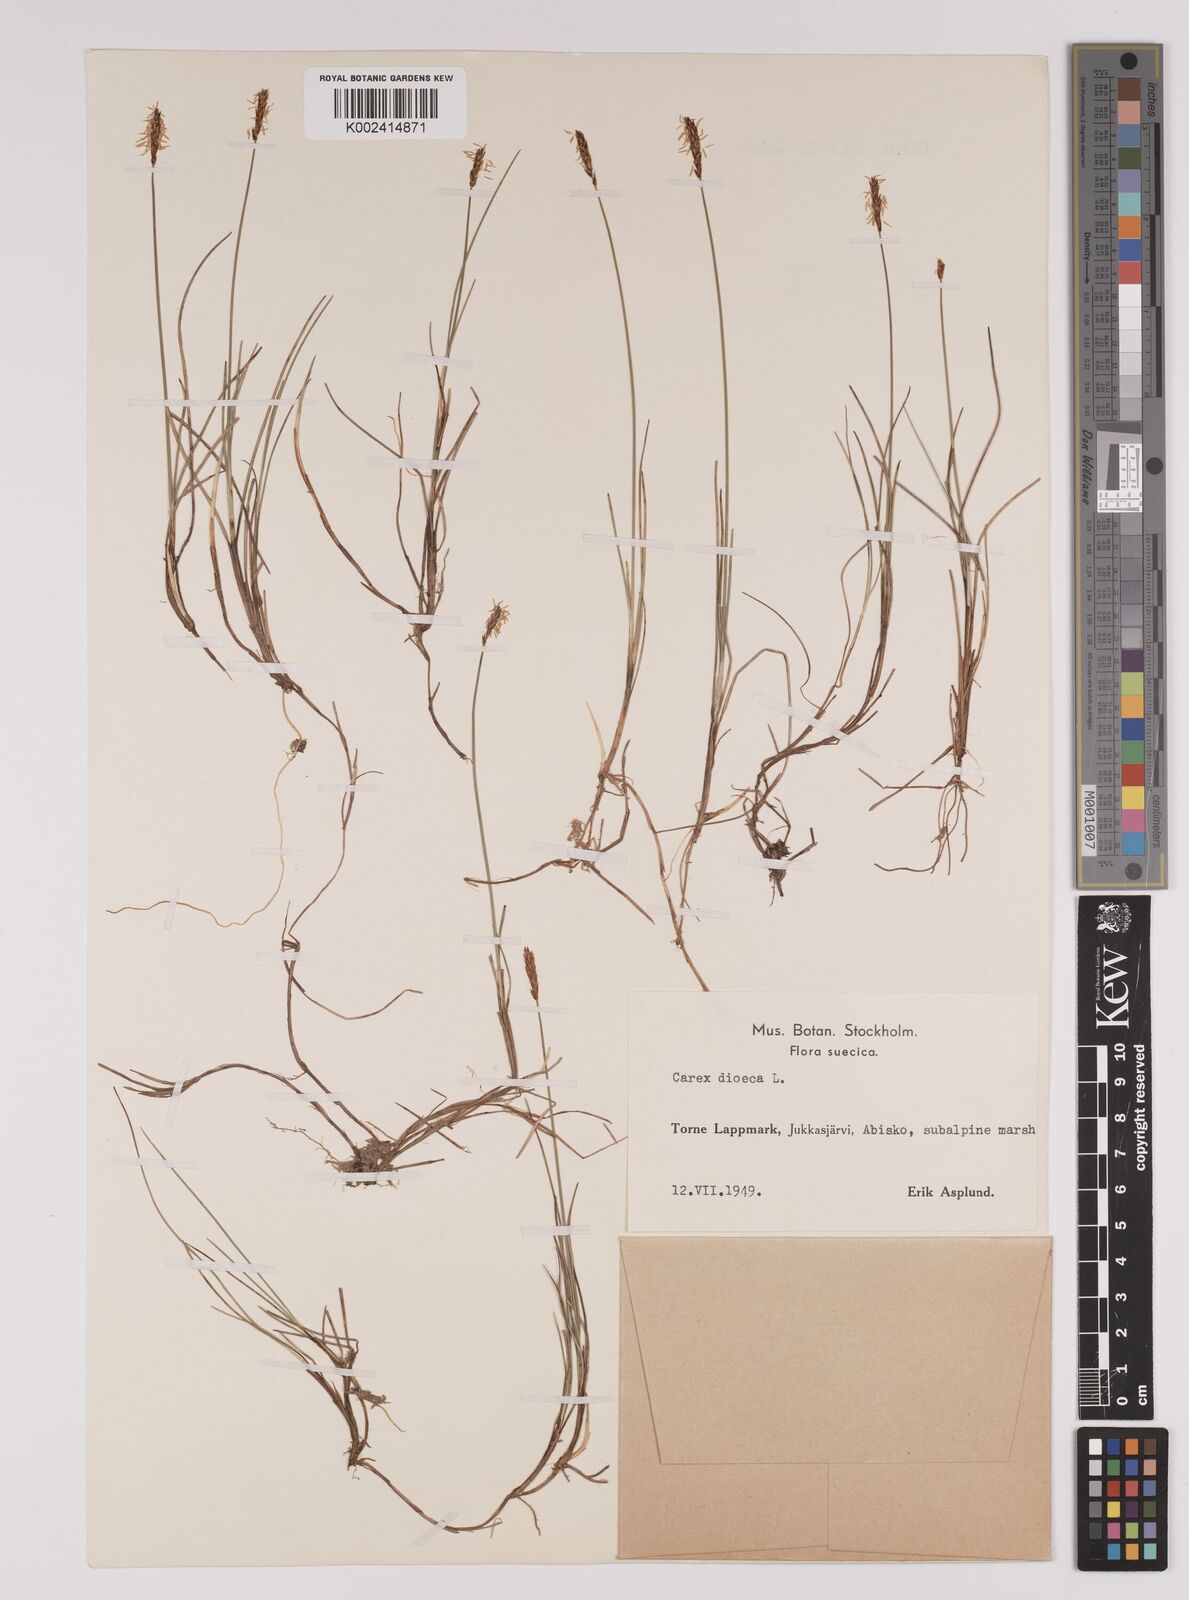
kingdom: Plantae
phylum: Tracheophyta
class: Liliopsida
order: Poales
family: Cyperaceae
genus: Carex
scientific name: Carex dioica
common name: Dioecious sedge
